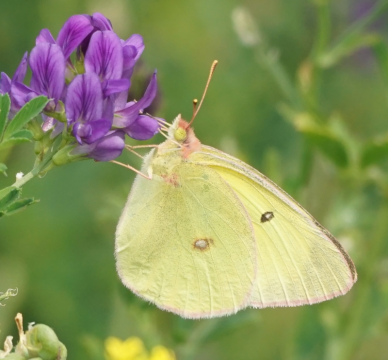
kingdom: Animalia
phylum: Arthropoda
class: Insecta
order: Lepidoptera
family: Pieridae
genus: Colias
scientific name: Colias interior
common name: Pink-edged Sulphur
